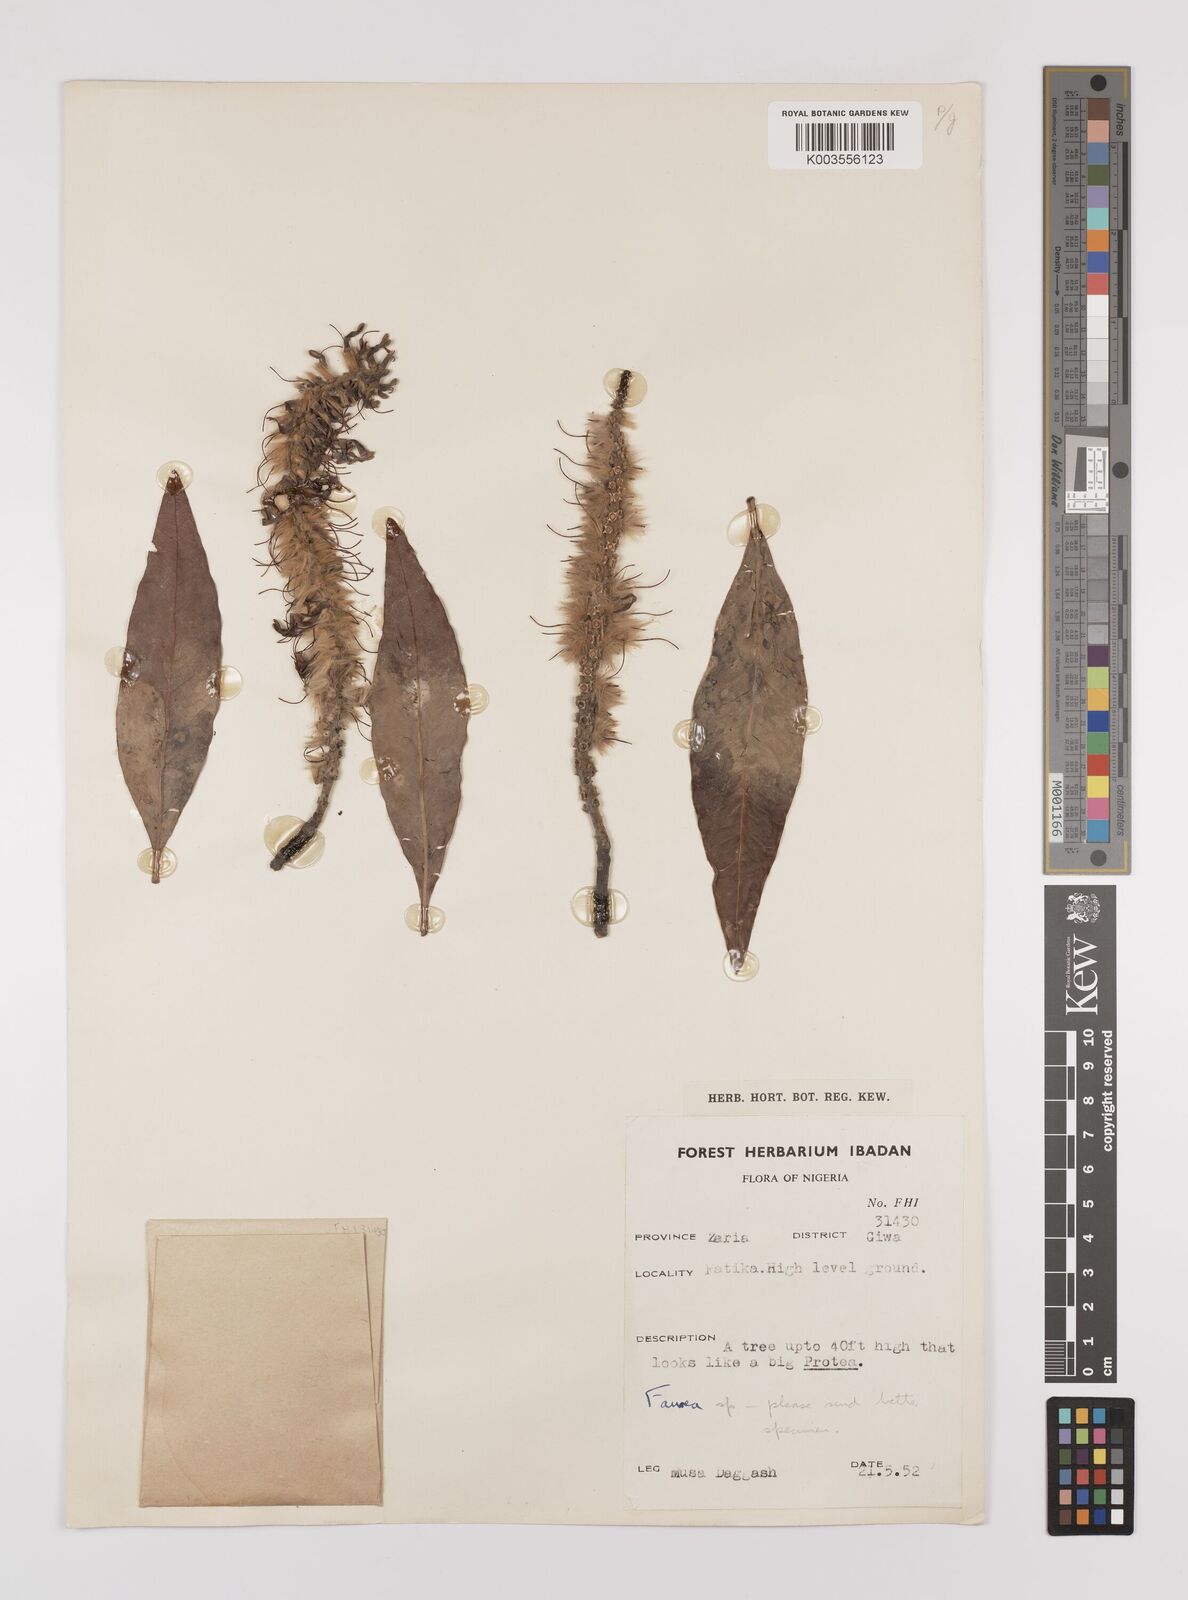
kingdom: Plantae
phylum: Tracheophyta
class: Magnoliopsida
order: Proteales
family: Proteaceae
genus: Faurea
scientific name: Faurea
